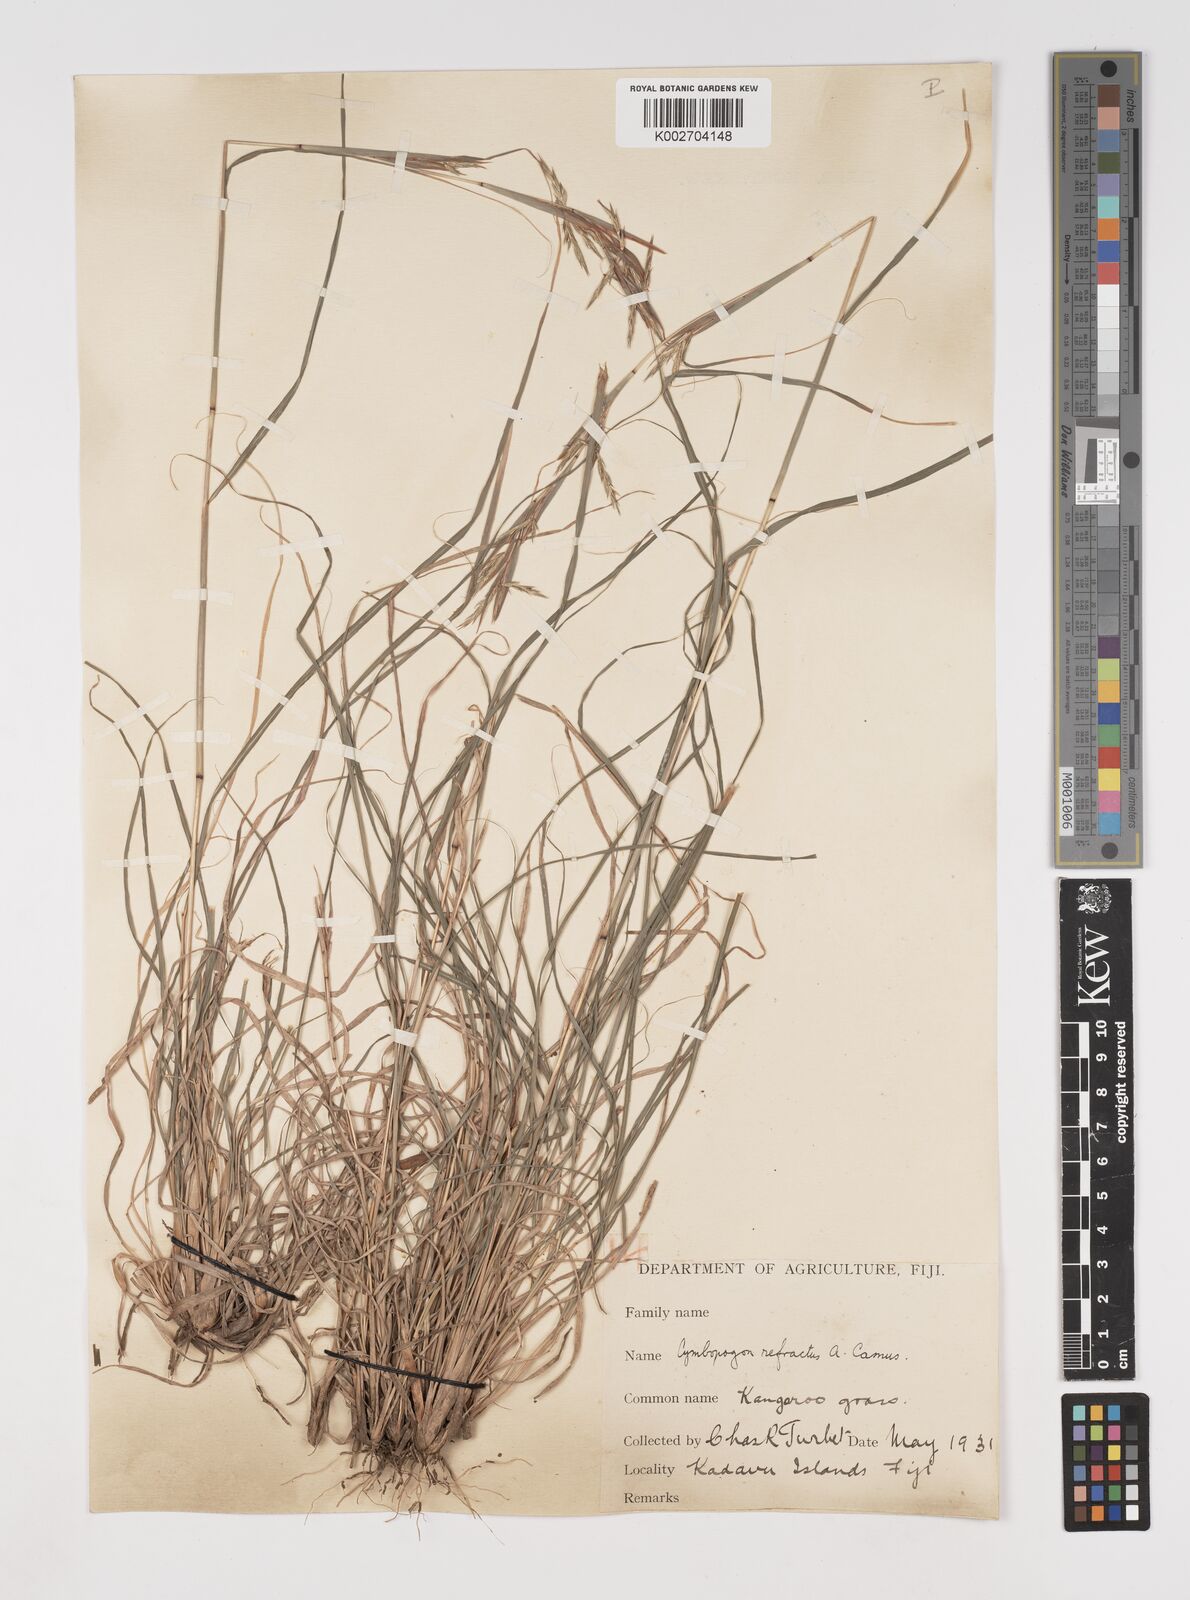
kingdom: Plantae
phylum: Tracheophyta
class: Liliopsida
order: Poales
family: Poaceae
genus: Cymbopogon
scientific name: Cymbopogon refractus
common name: Barbwire grass
